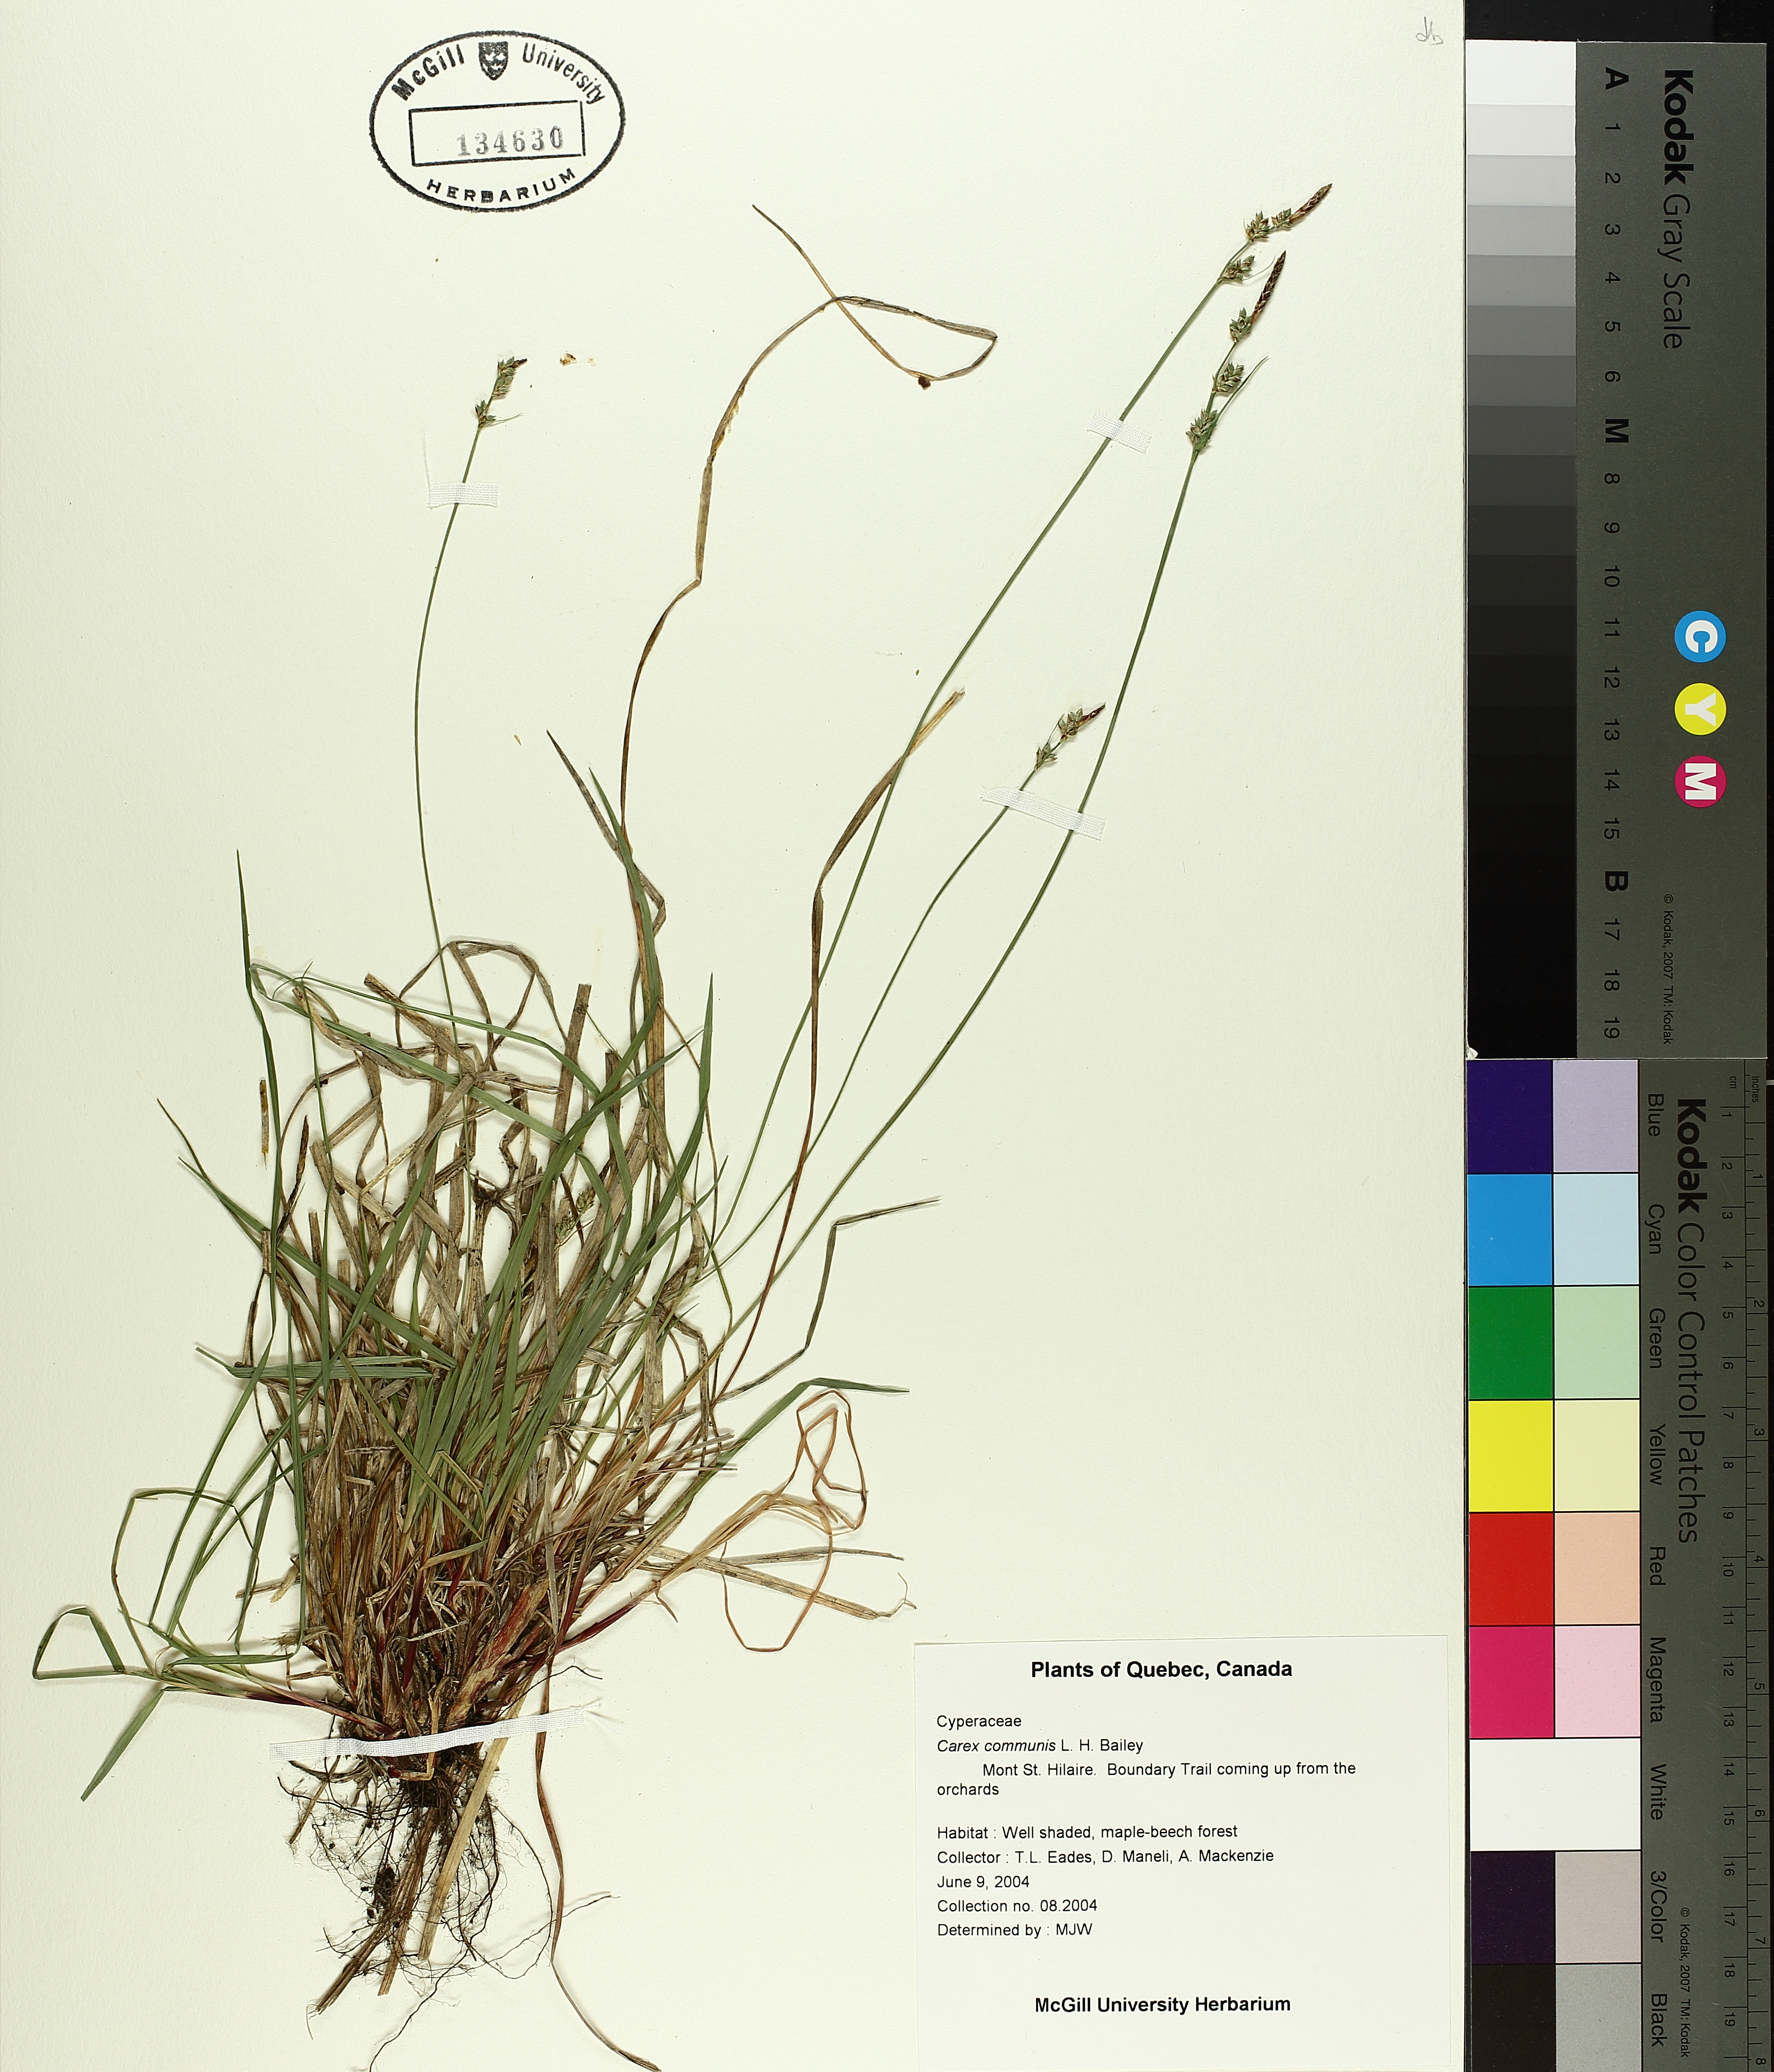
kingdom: Plantae
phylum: Tracheophyta
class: Liliopsida
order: Poales
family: Cyperaceae
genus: Carex
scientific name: Carex communis
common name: Colonial oak sedge
